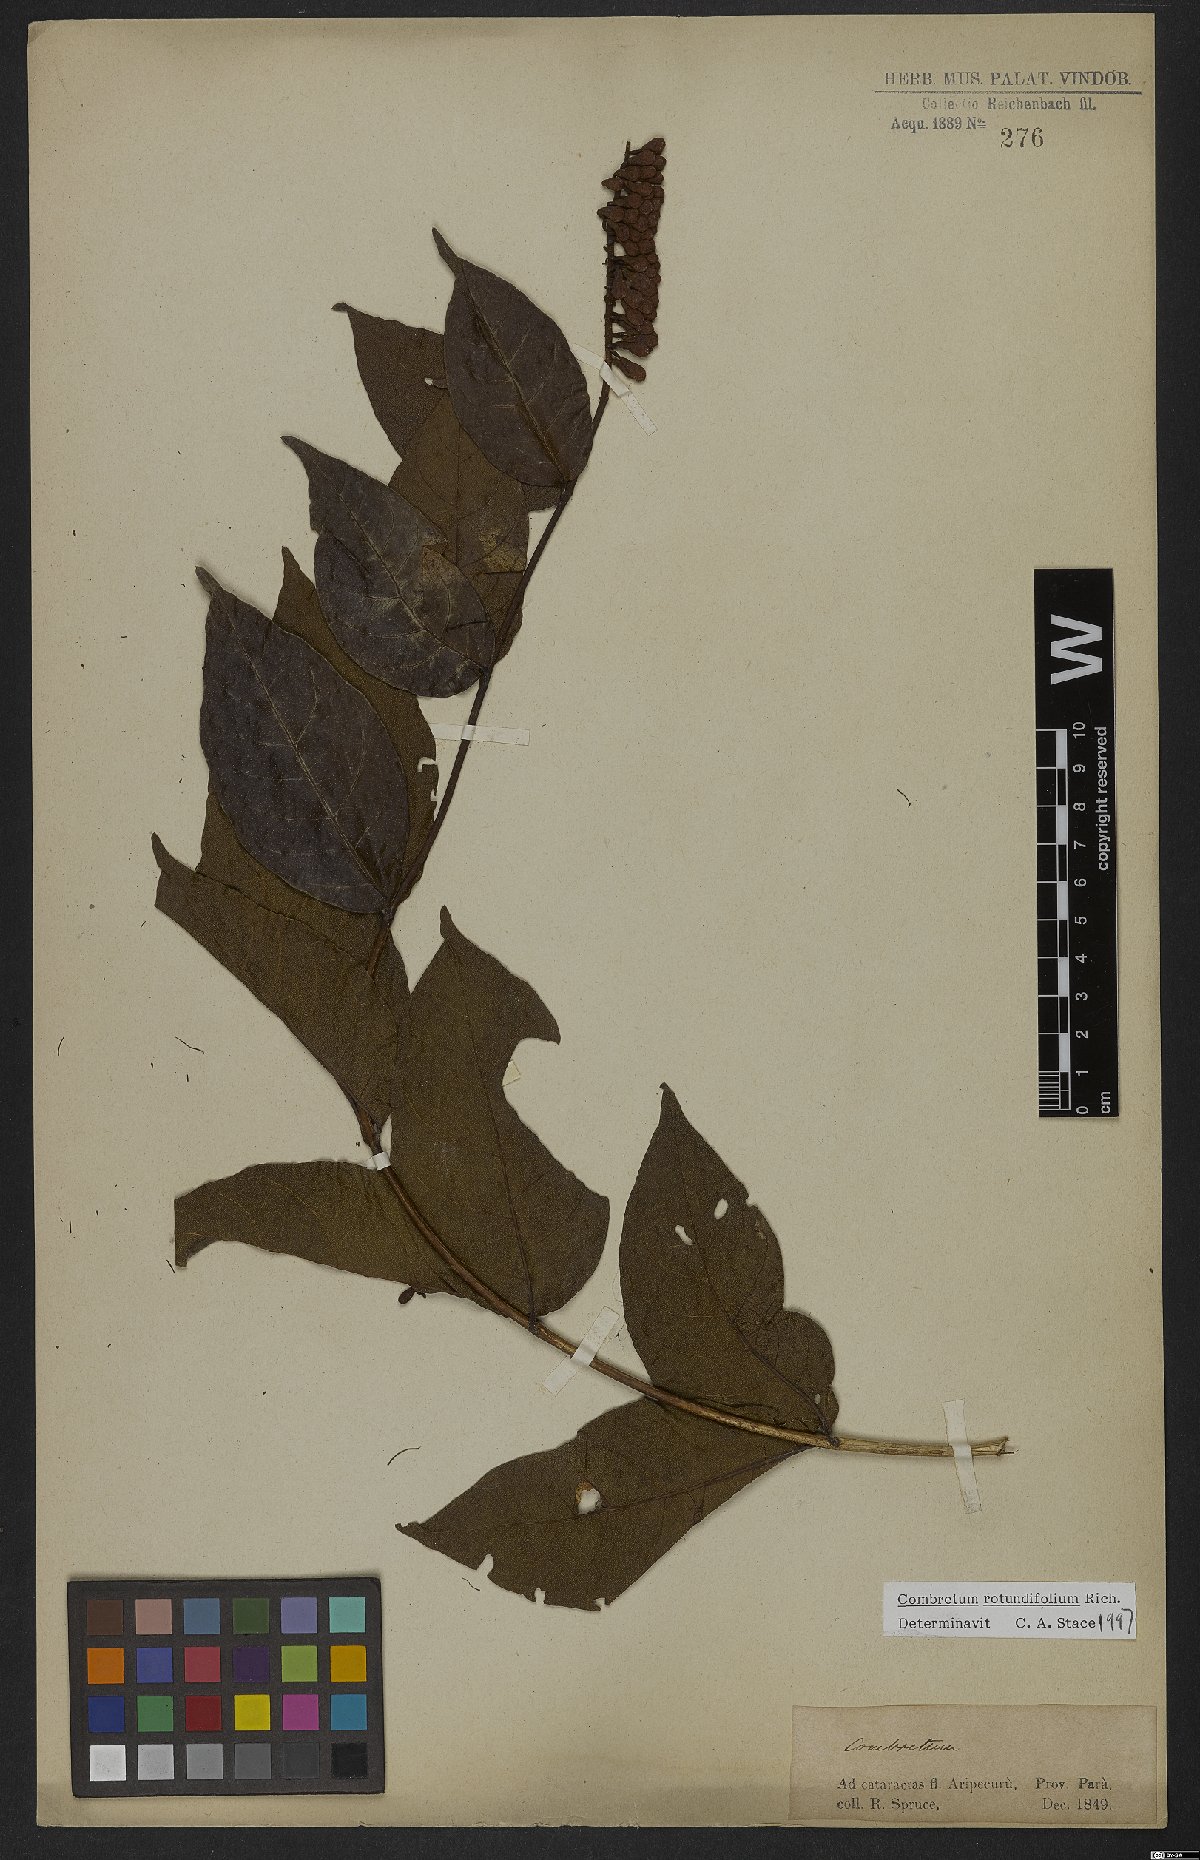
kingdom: Plantae
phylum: Tracheophyta
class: Magnoliopsida
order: Myrtales
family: Combretaceae
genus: Combretum
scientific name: Combretum rotundifolium
